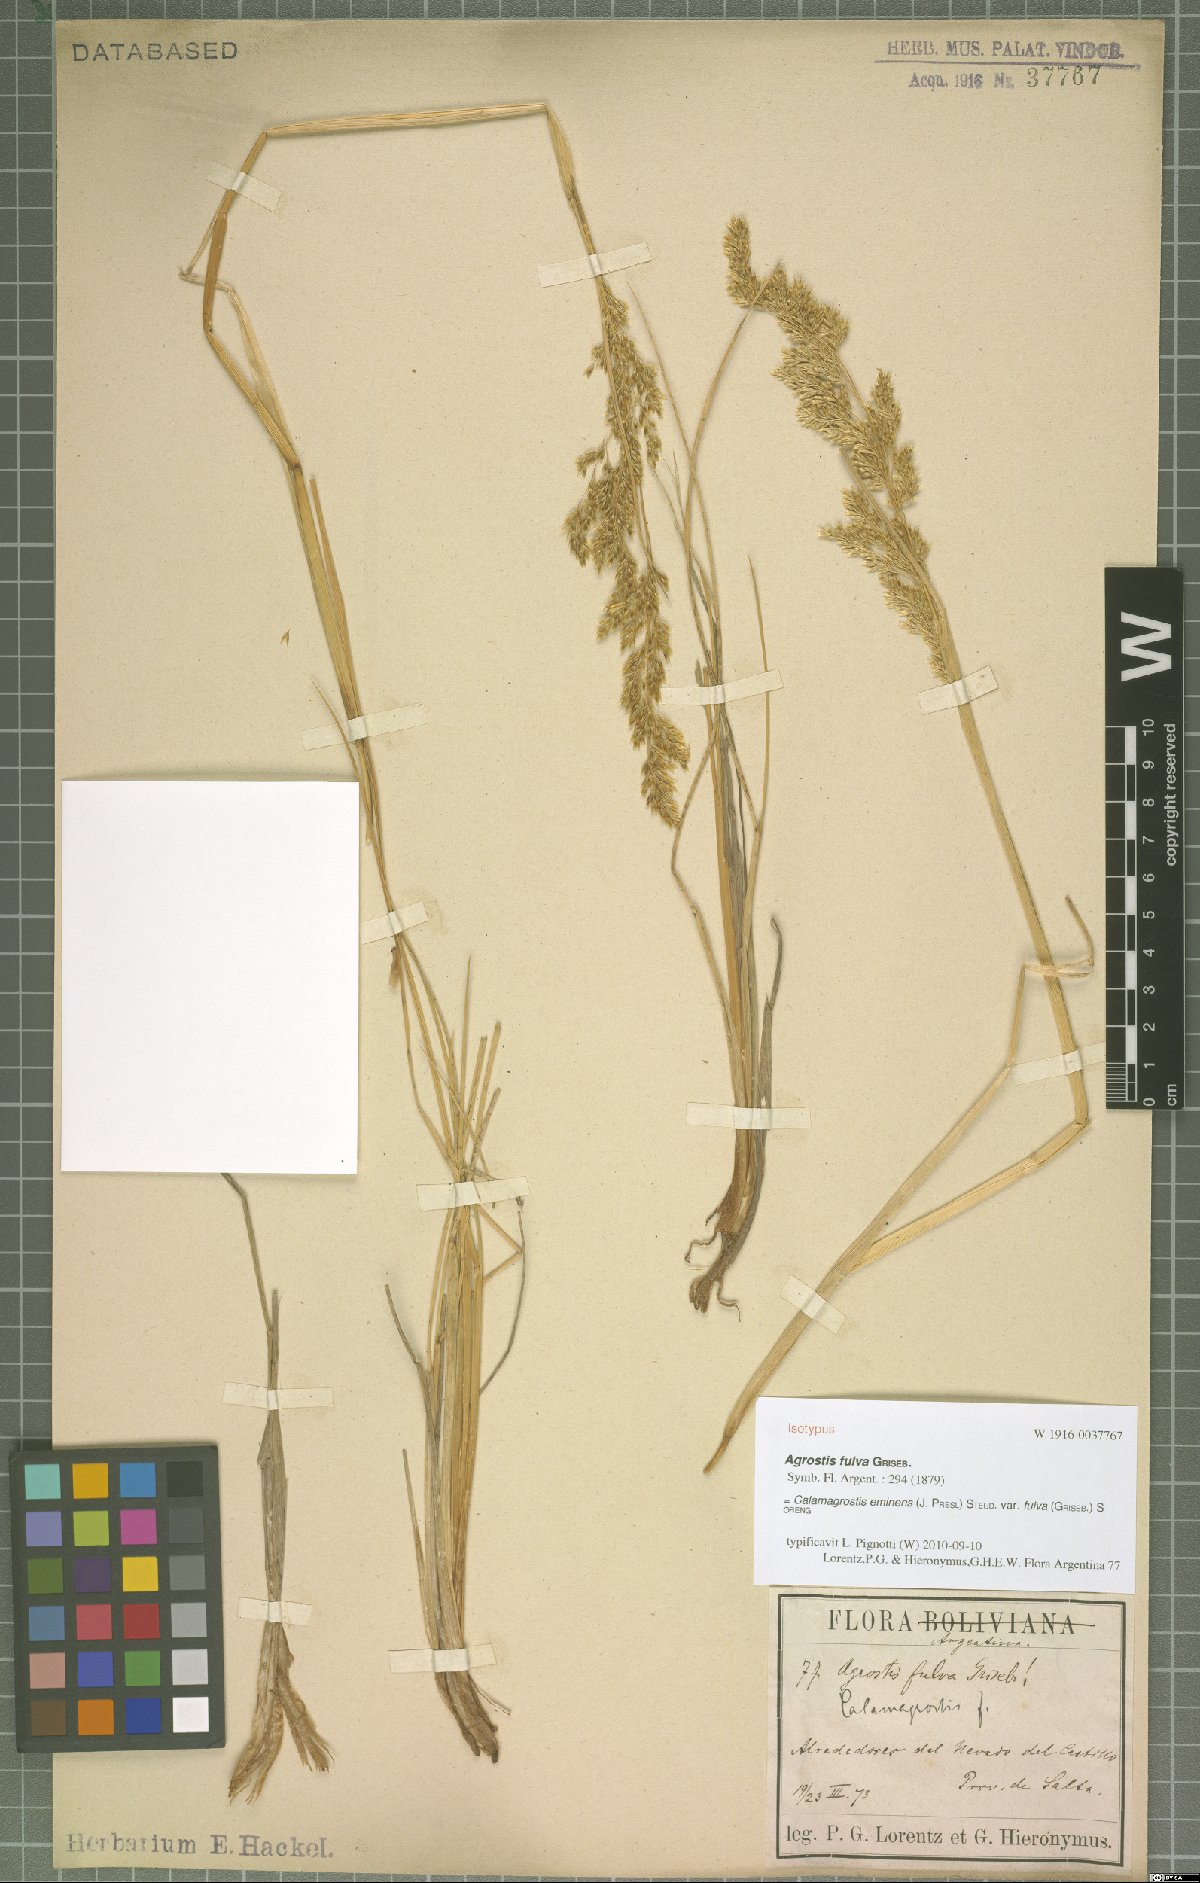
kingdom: Plantae
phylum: Tracheophyta
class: Liliopsida
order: Poales
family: Poaceae
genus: Deschampsia
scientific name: Deschampsia eminens
